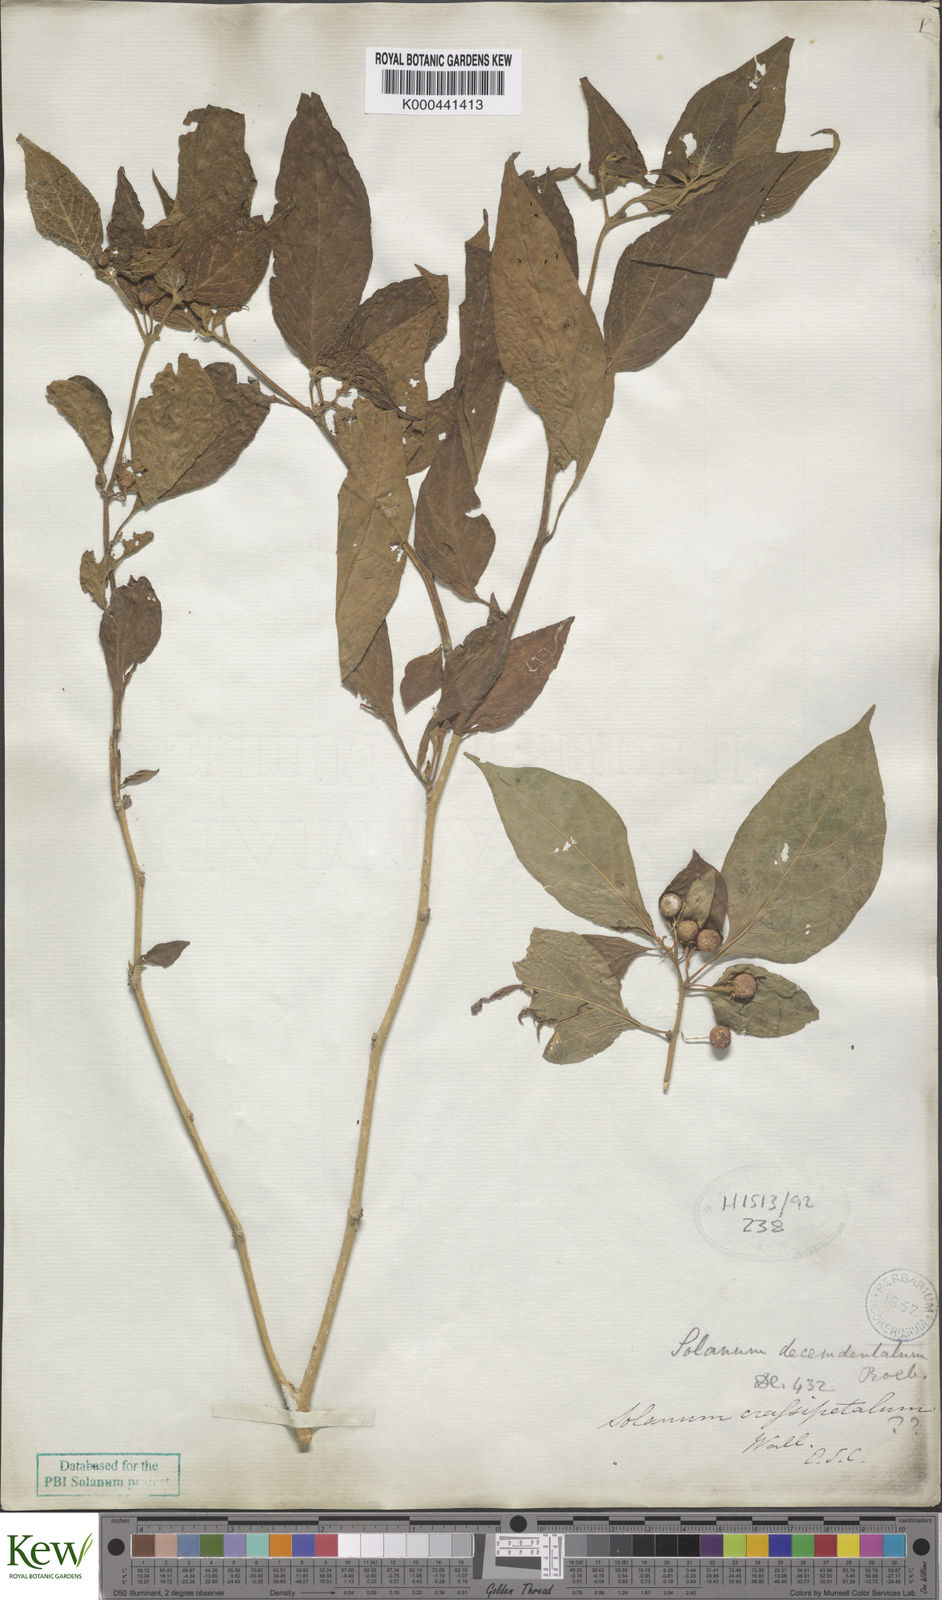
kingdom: Plantae
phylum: Tracheophyta
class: Magnoliopsida
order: Solanales
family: Solanaceae
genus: Lycianthes
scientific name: Lycianthes biflora
